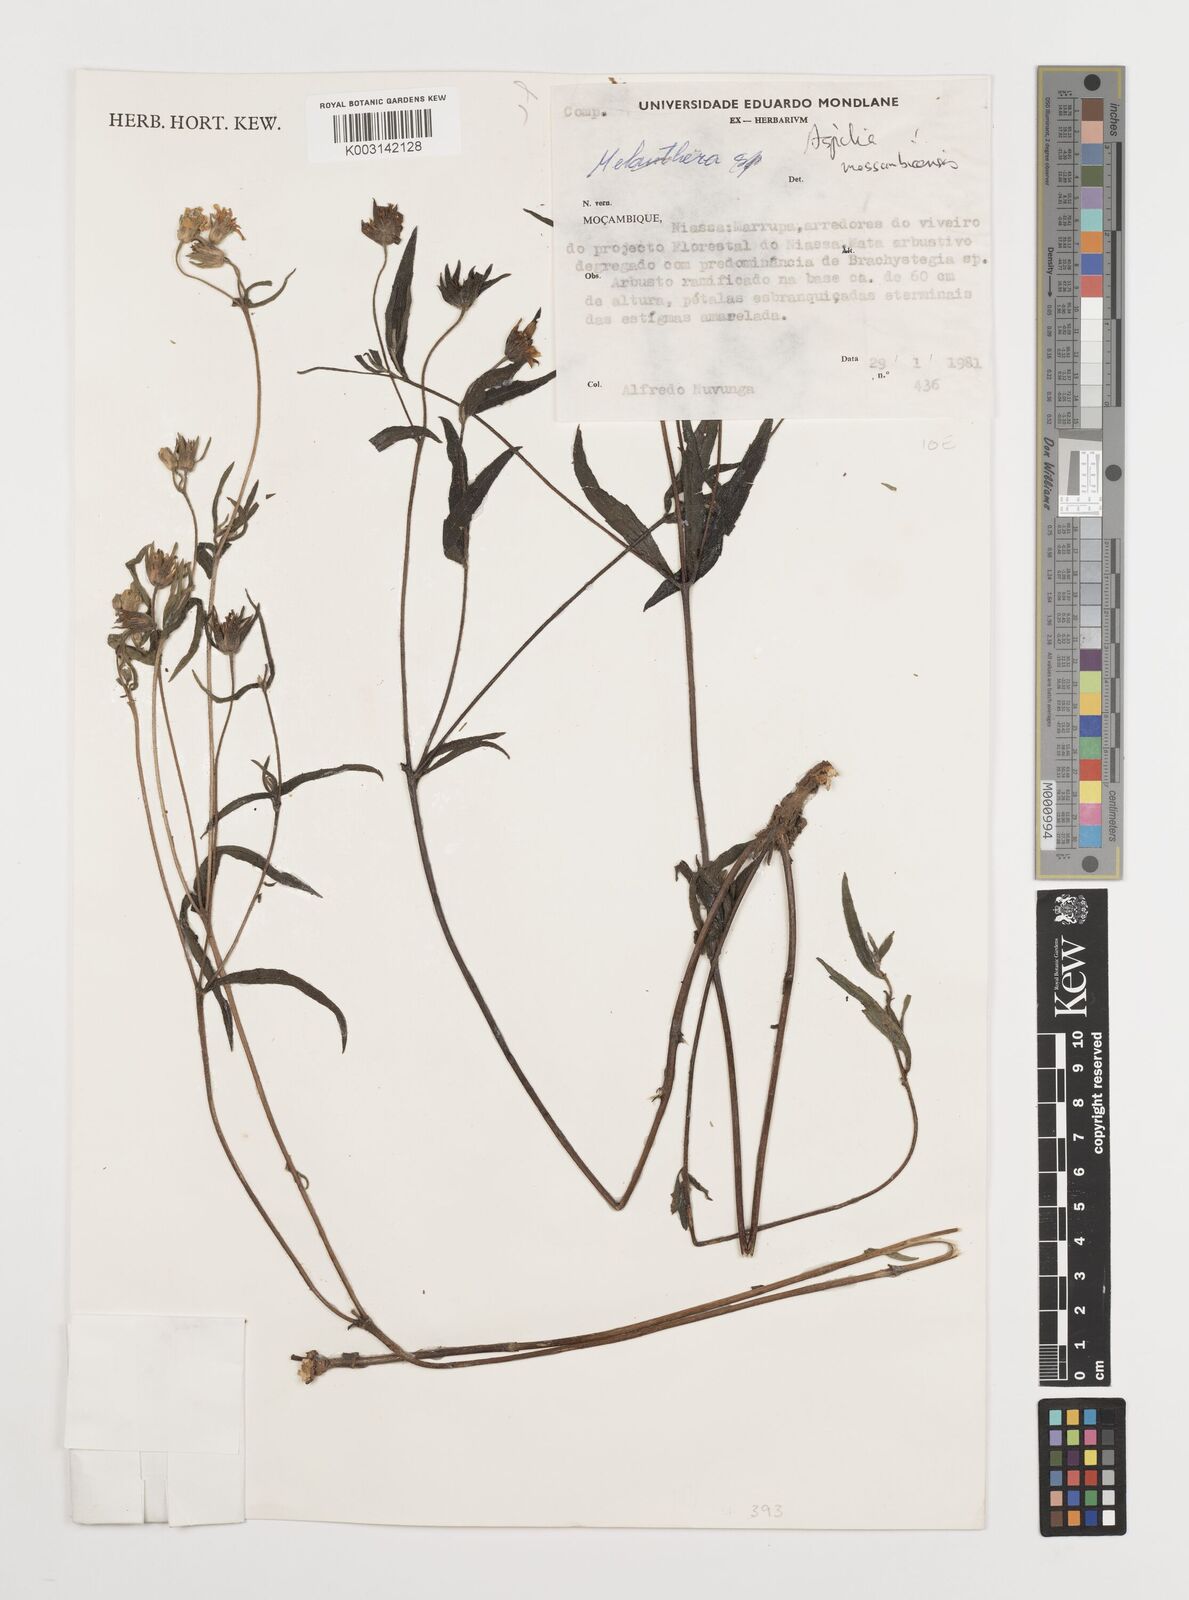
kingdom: Plantae
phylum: Tracheophyta
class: Magnoliopsida
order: Asterales
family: Asteraceae
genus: Aspilia
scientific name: Aspilia mossambicensis
